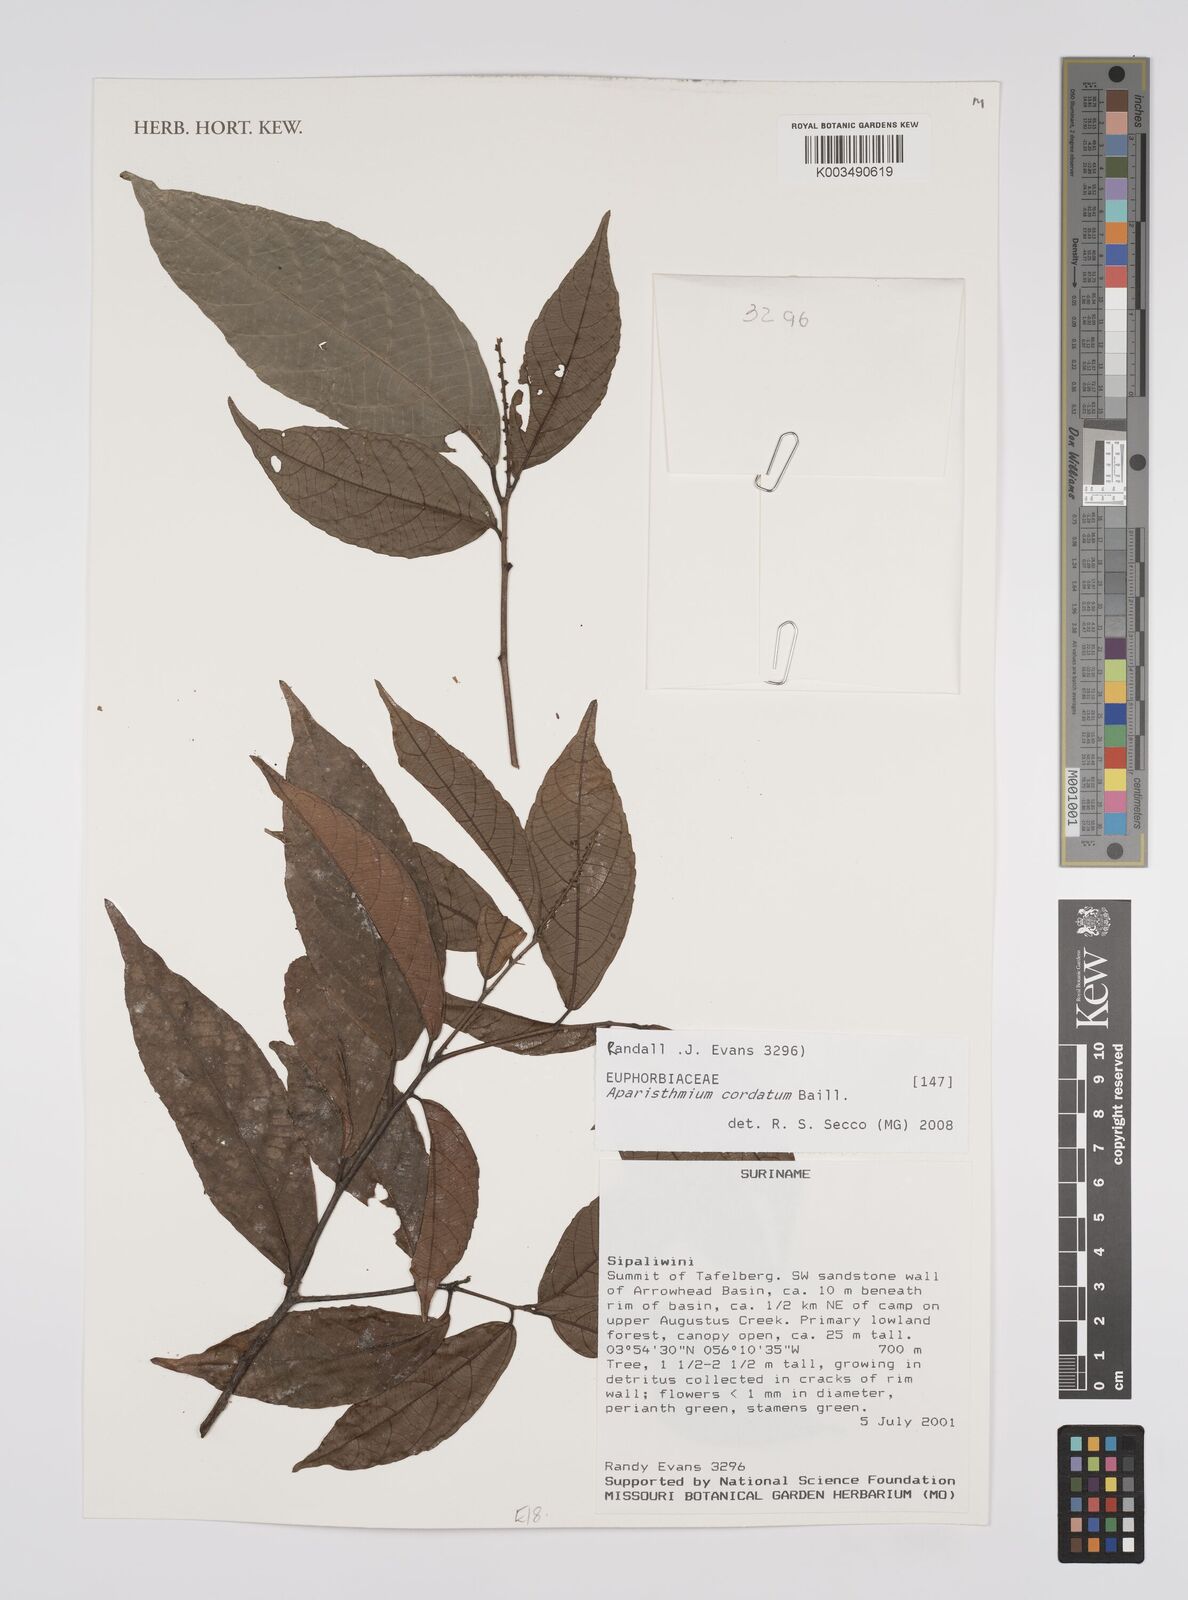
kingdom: Plantae
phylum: Tracheophyta
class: Magnoliopsida
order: Malpighiales
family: Euphorbiaceae
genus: Aparisthmium
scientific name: Aparisthmium cordatum
